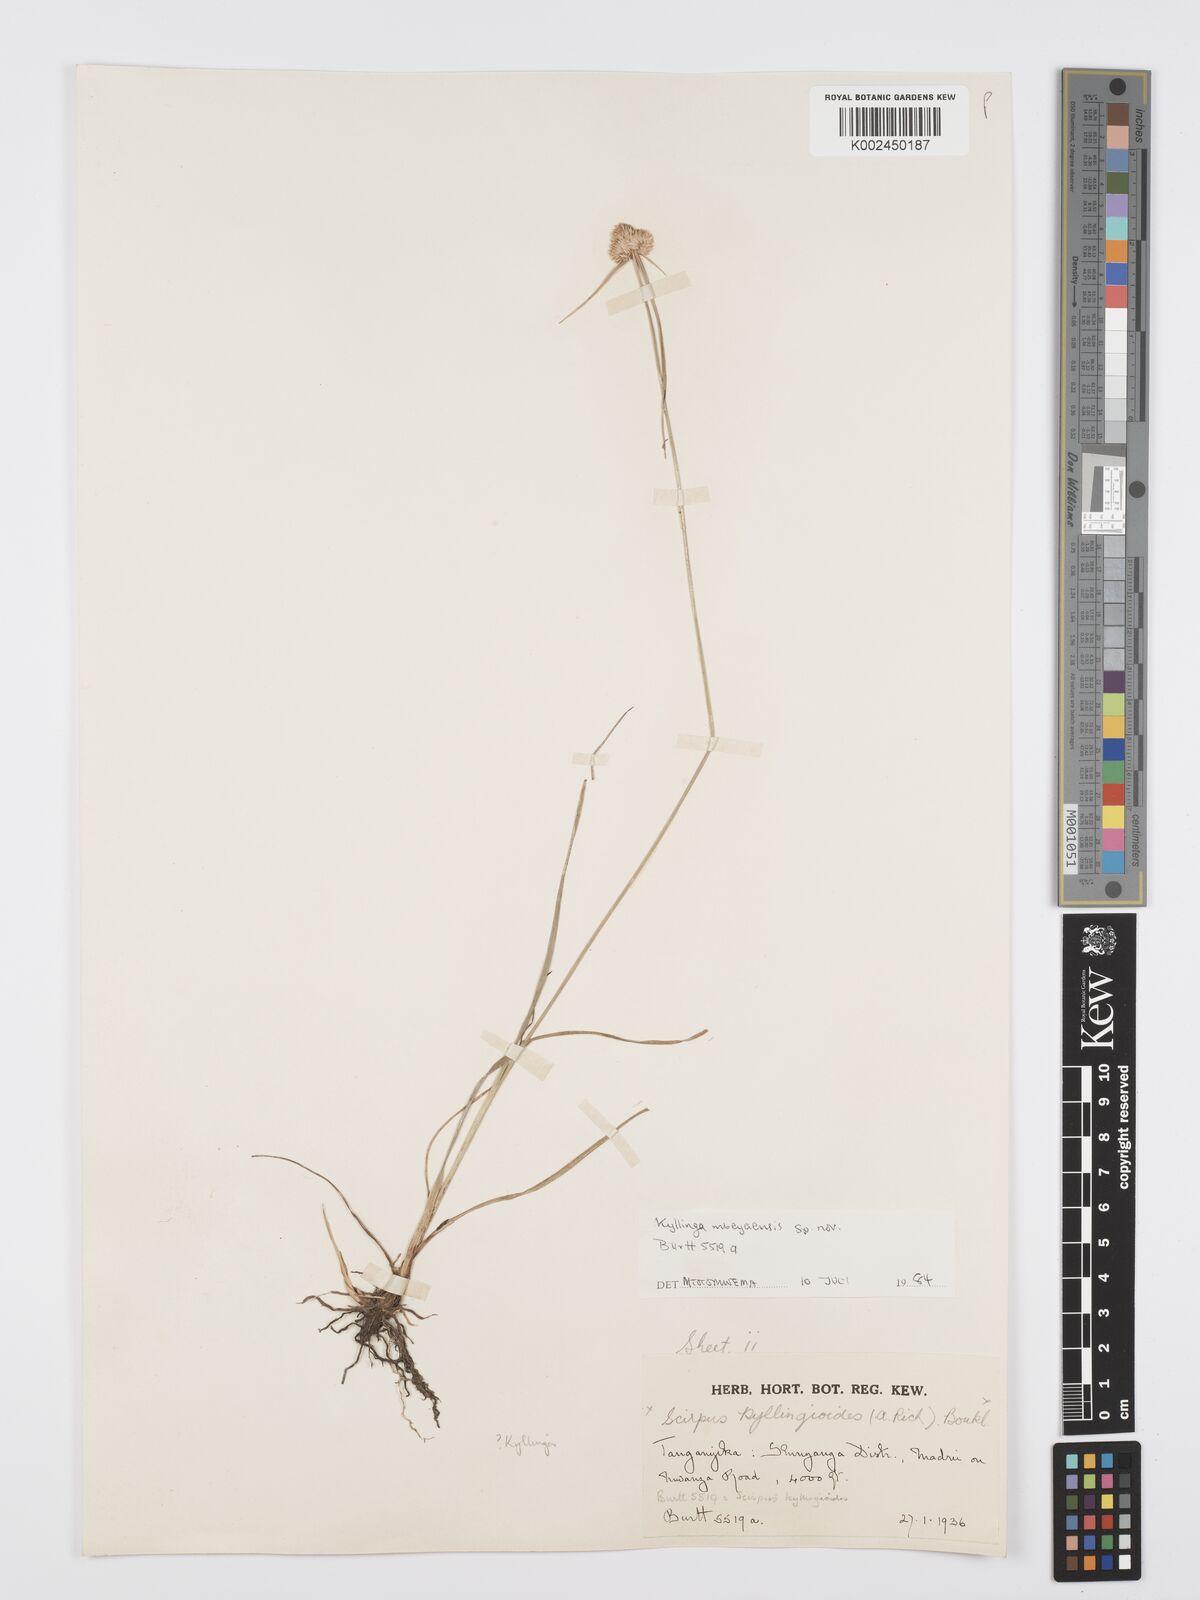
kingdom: Plantae
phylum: Tracheophyta
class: Liliopsida
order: Poales
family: Cyperaceae
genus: Cyperus
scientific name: Cyperus
